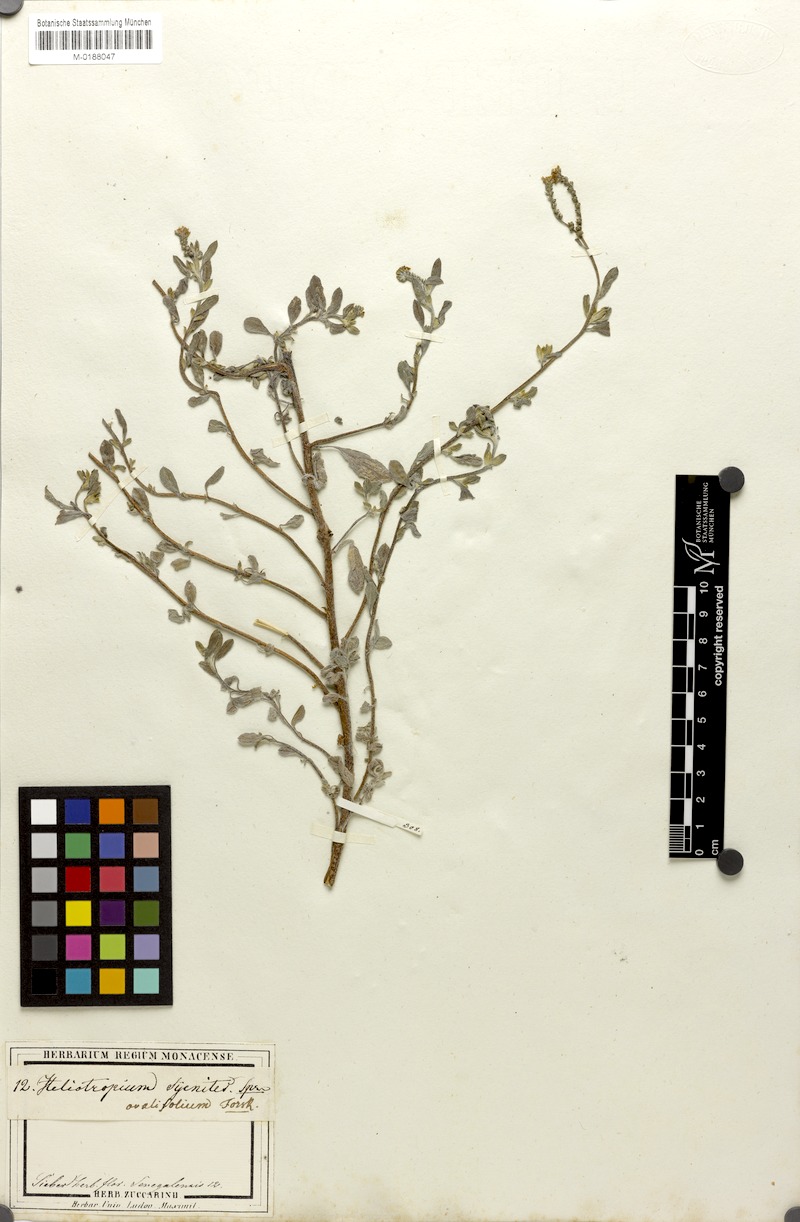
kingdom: Plantae
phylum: Tracheophyta
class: Magnoliopsida
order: Boraginales
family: Heliotropiaceae
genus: Euploca
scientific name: Euploca ovalifolia
